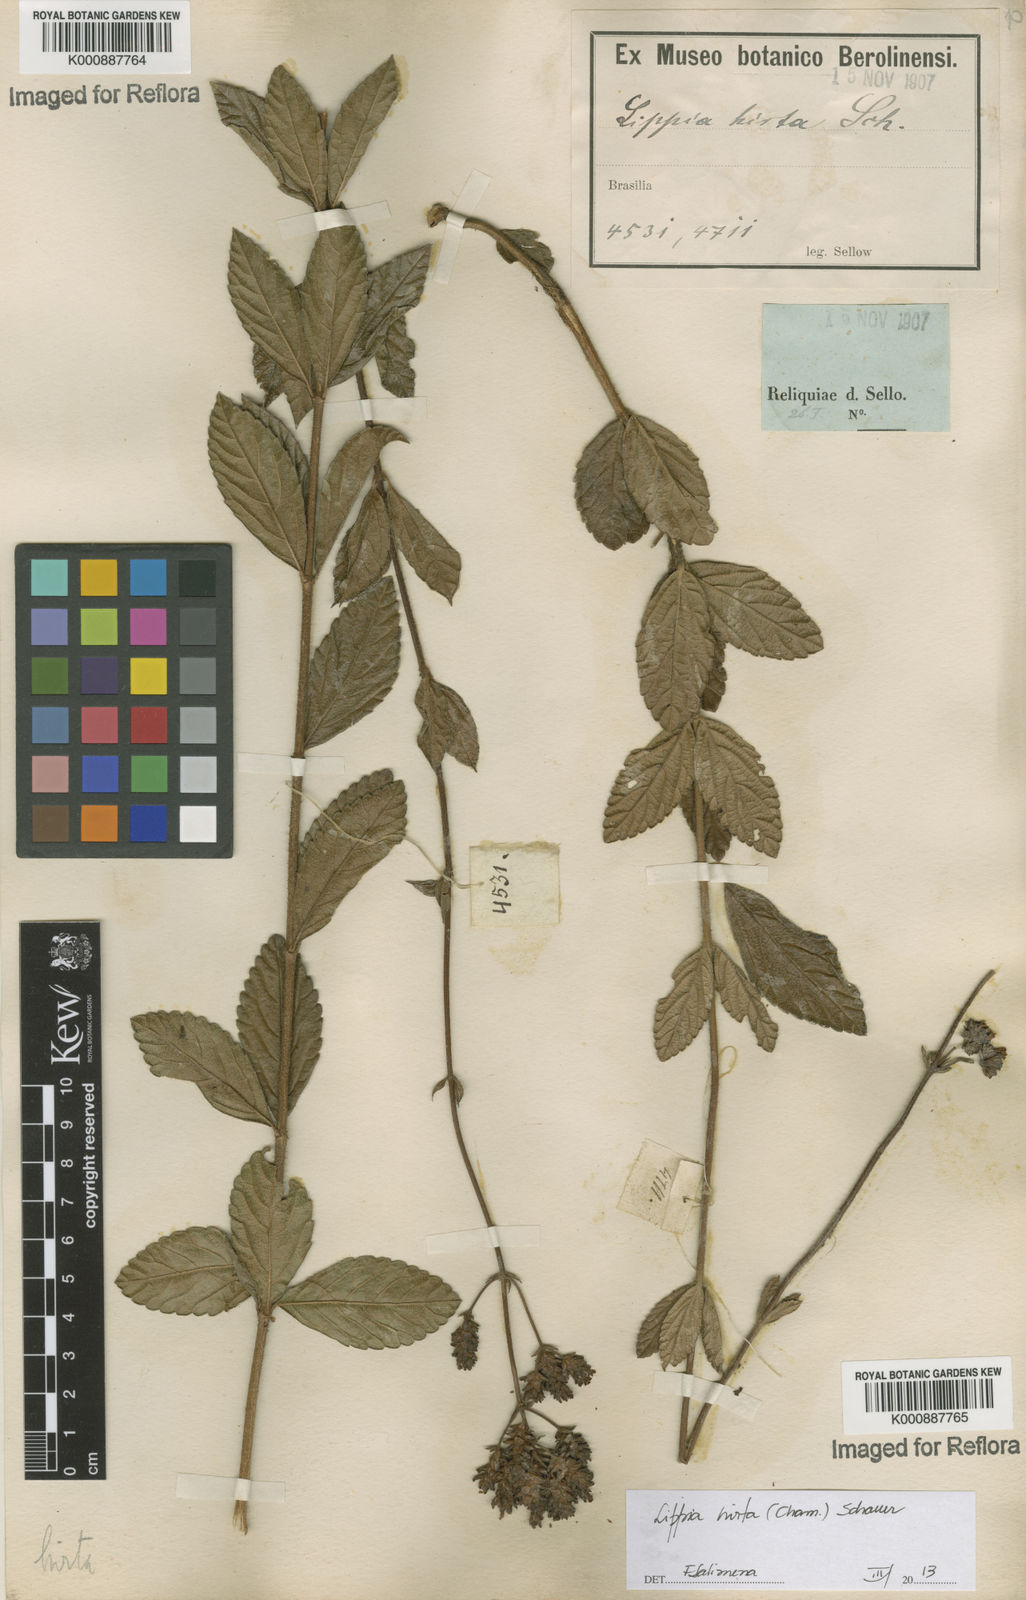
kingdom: Plantae
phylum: Tracheophyta
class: Magnoliopsida
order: Lamiales
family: Verbenaceae
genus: Lippia
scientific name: Lippia hirta
